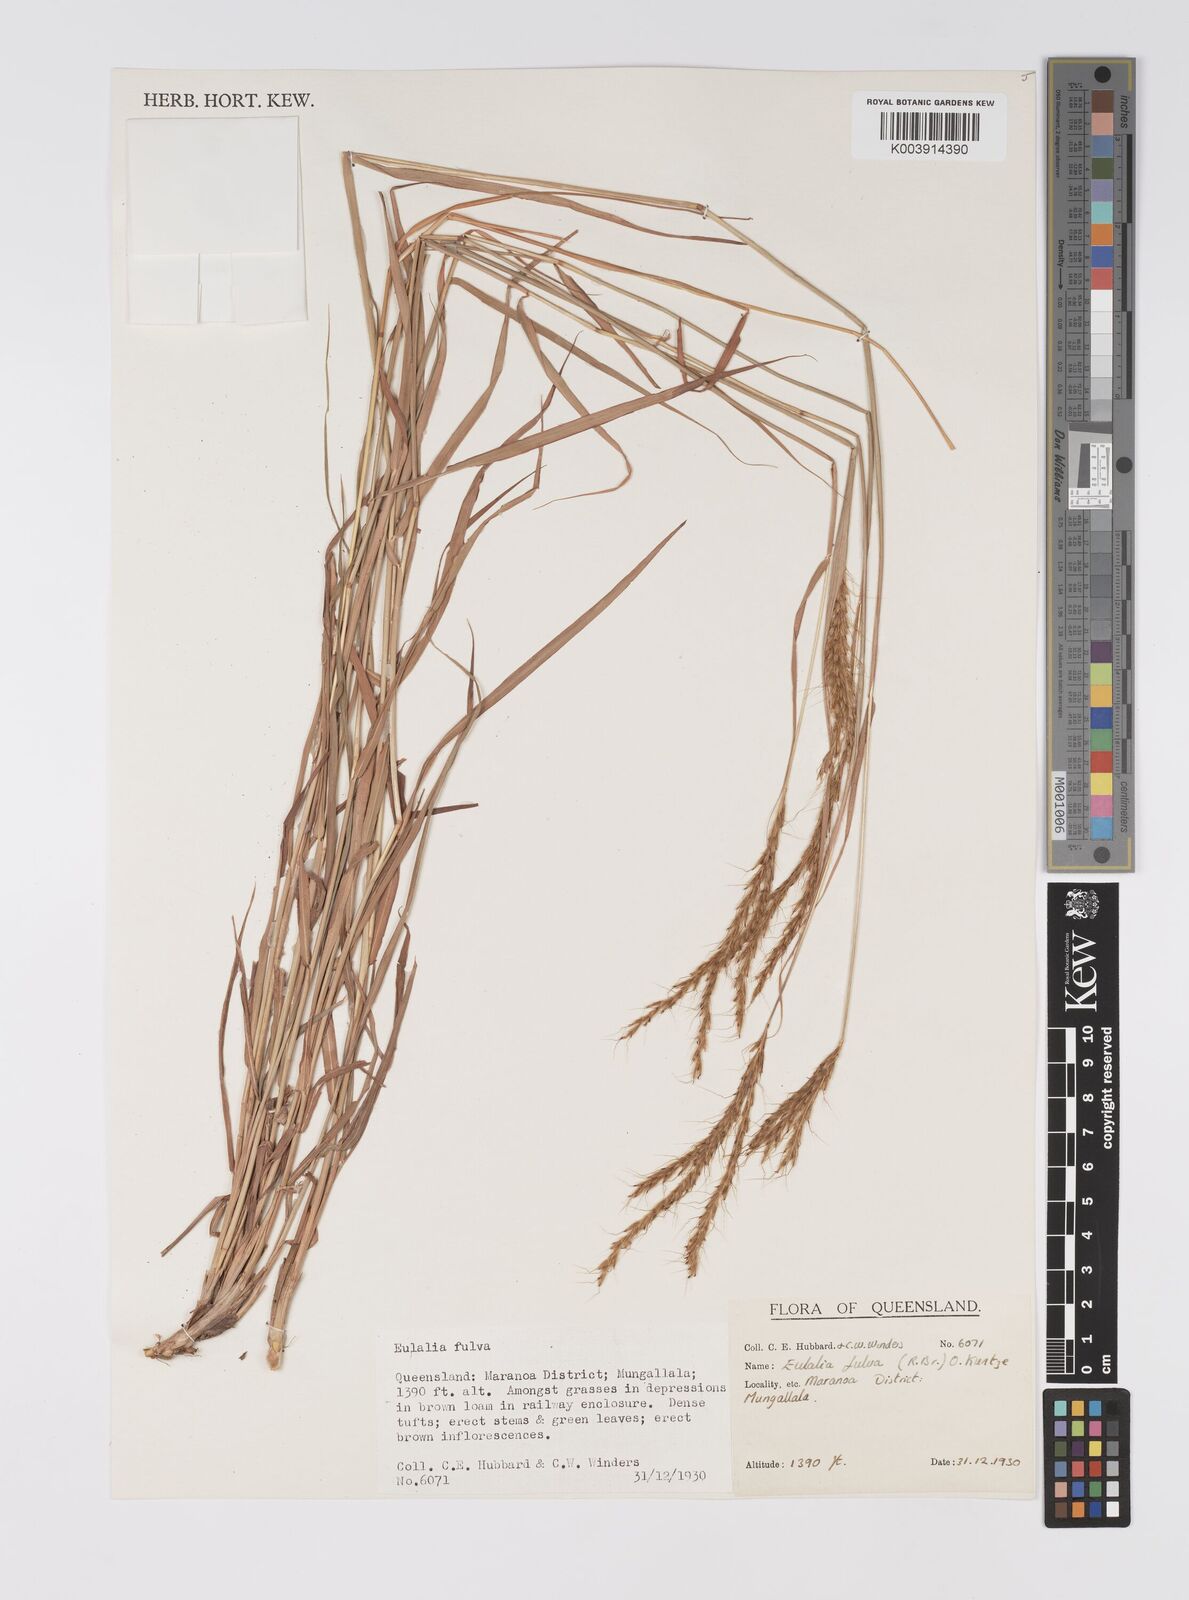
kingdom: Plantae
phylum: Tracheophyta
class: Liliopsida
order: Poales
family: Poaceae
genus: Eulalia
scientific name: Eulalia aurea
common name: Silky browntop
